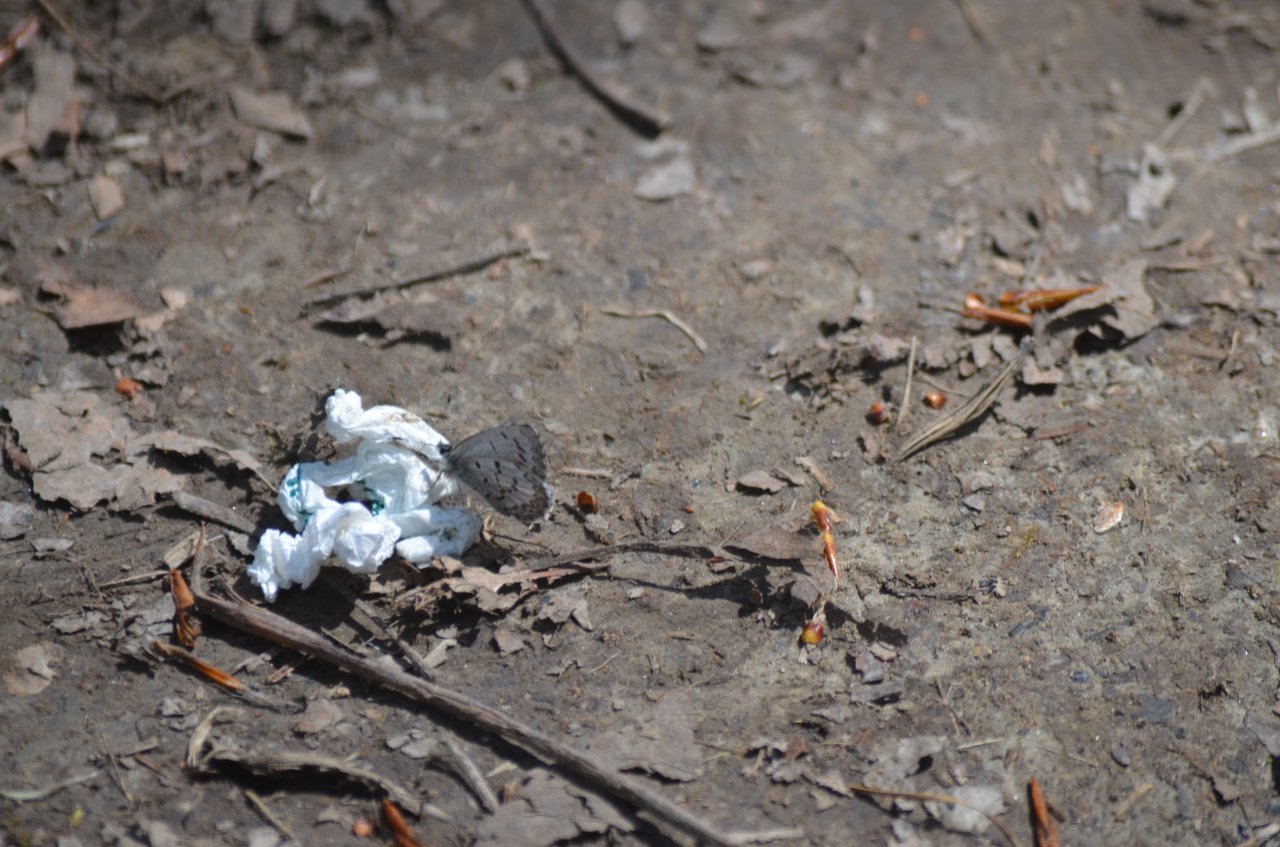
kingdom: Animalia
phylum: Arthropoda
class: Insecta
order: Lepidoptera
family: Lycaenidae
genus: Celastrina
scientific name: Celastrina lucia
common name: Northern Spring Azure
